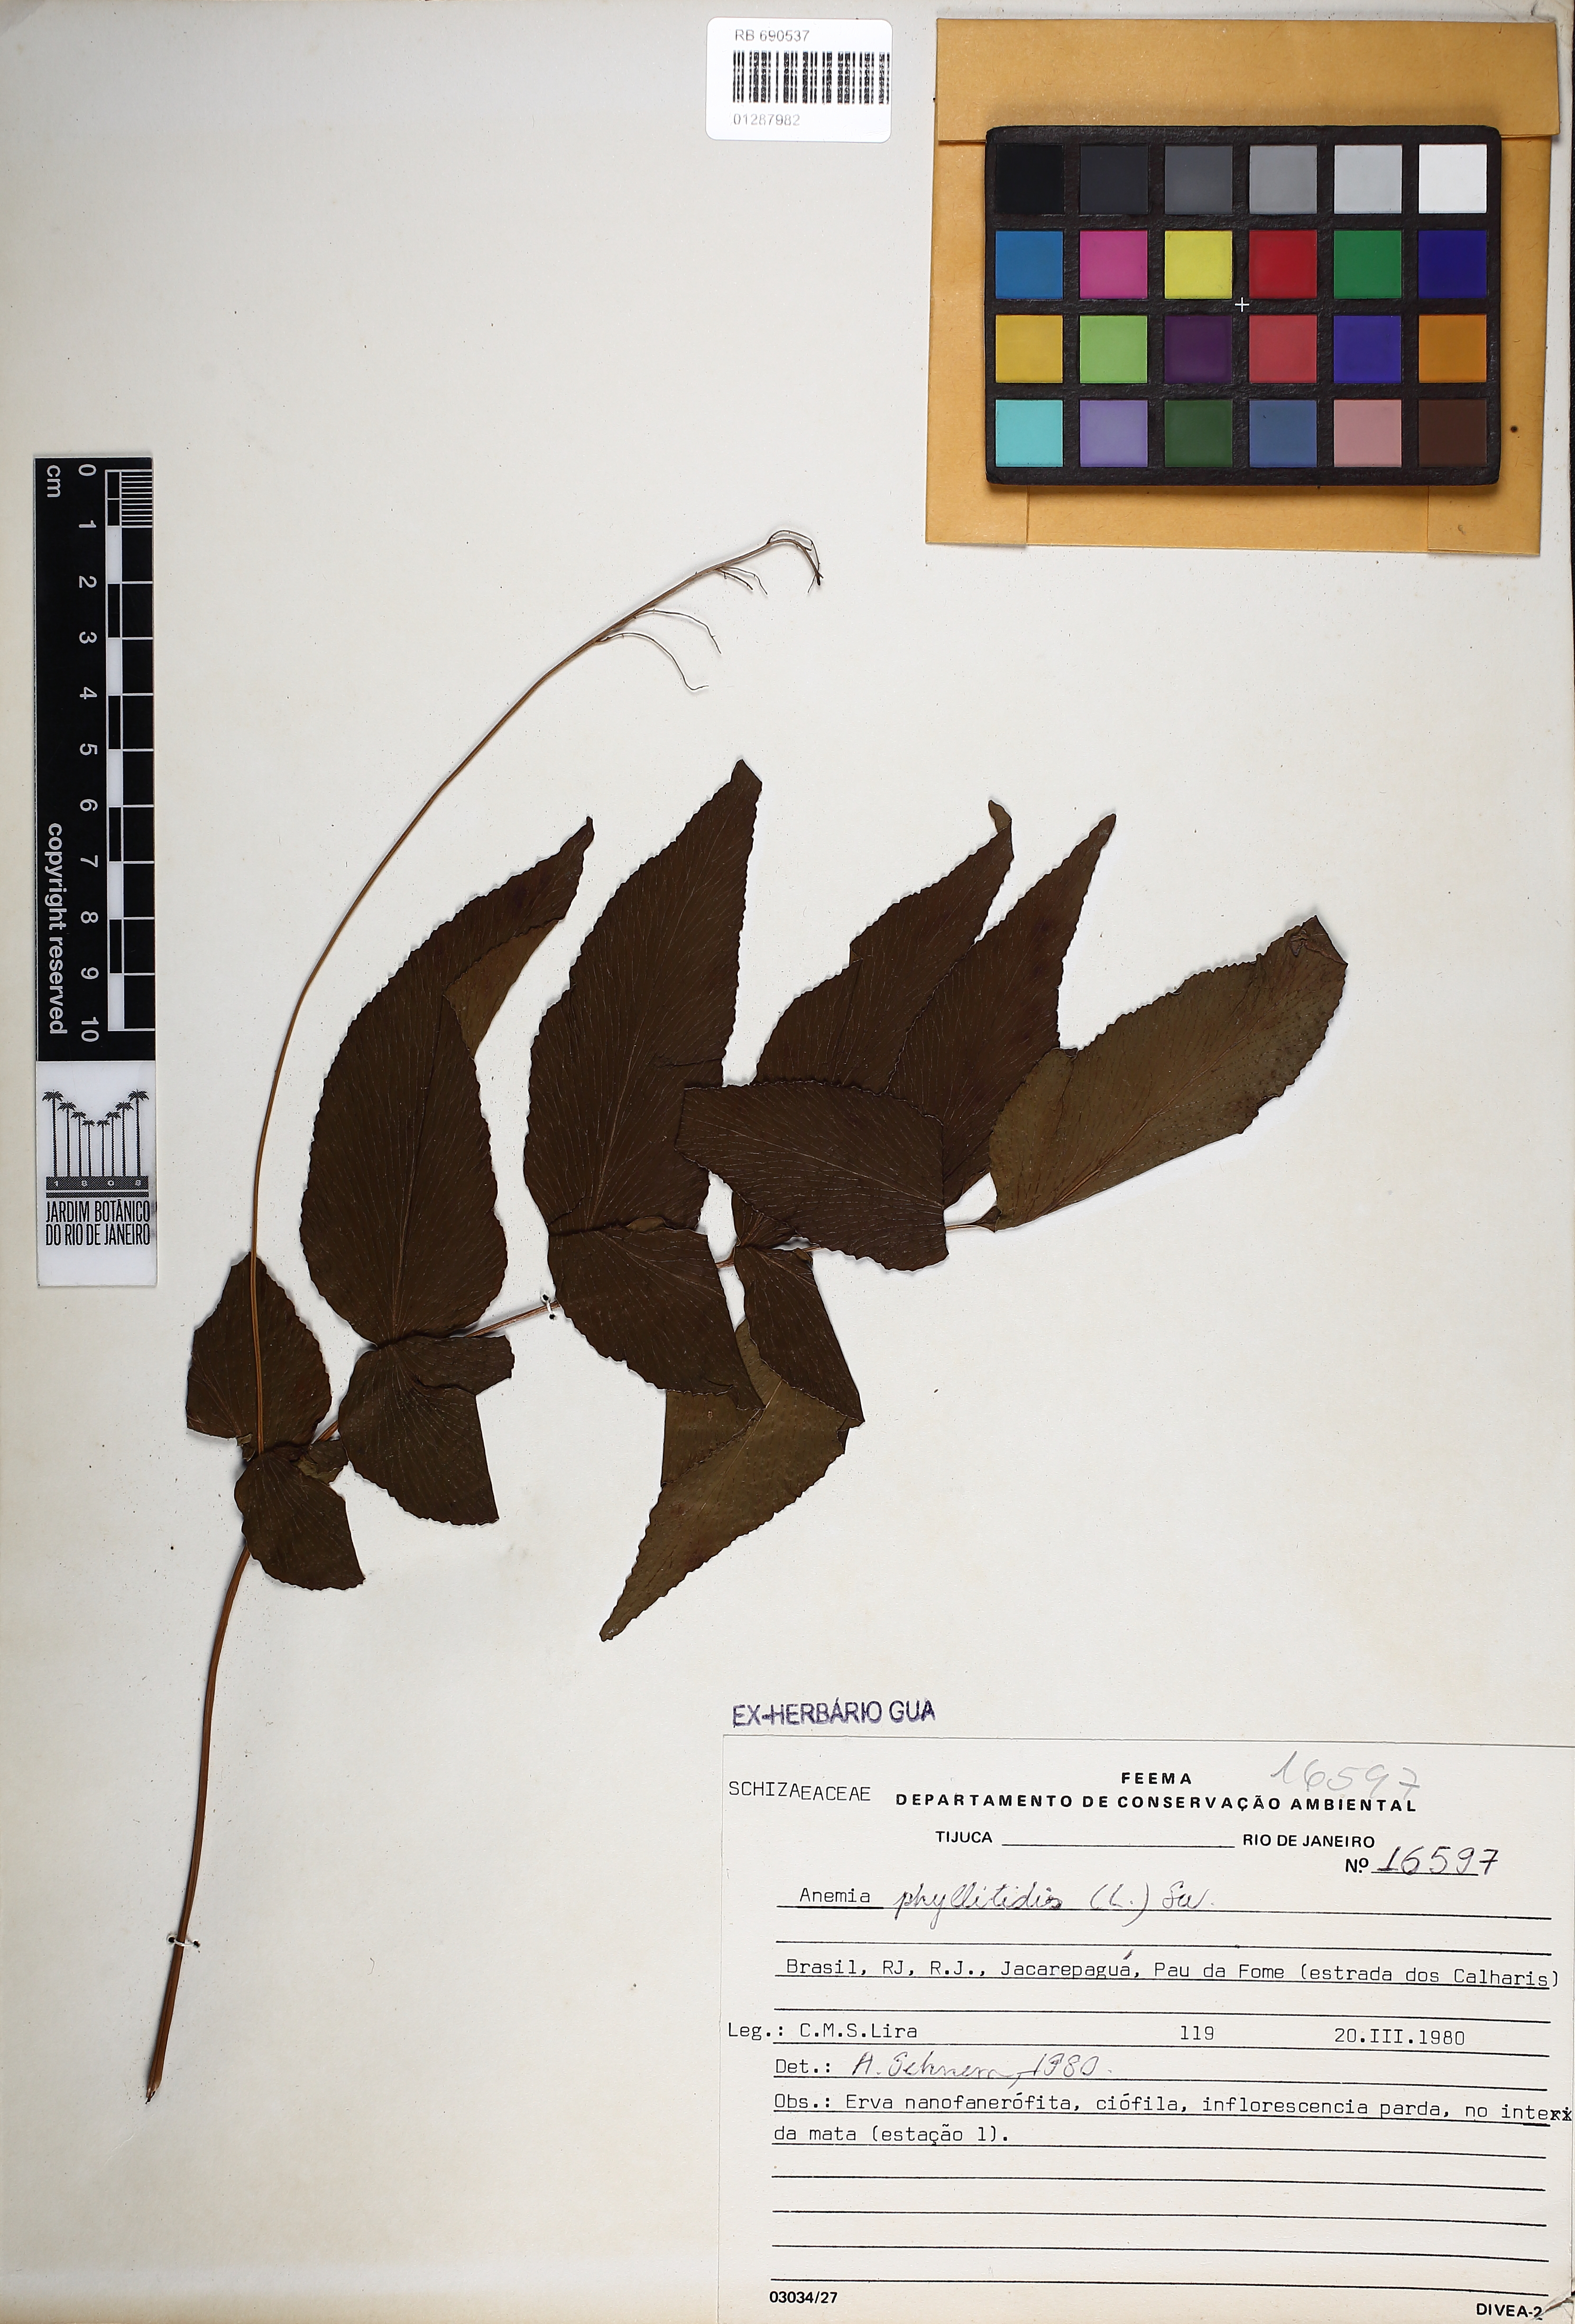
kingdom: Plantae
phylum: Tracheophyta
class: Polypodiopsida
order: Schizaeales
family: Anemiaceae
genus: Anemia
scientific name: Anemia phyllitidis
